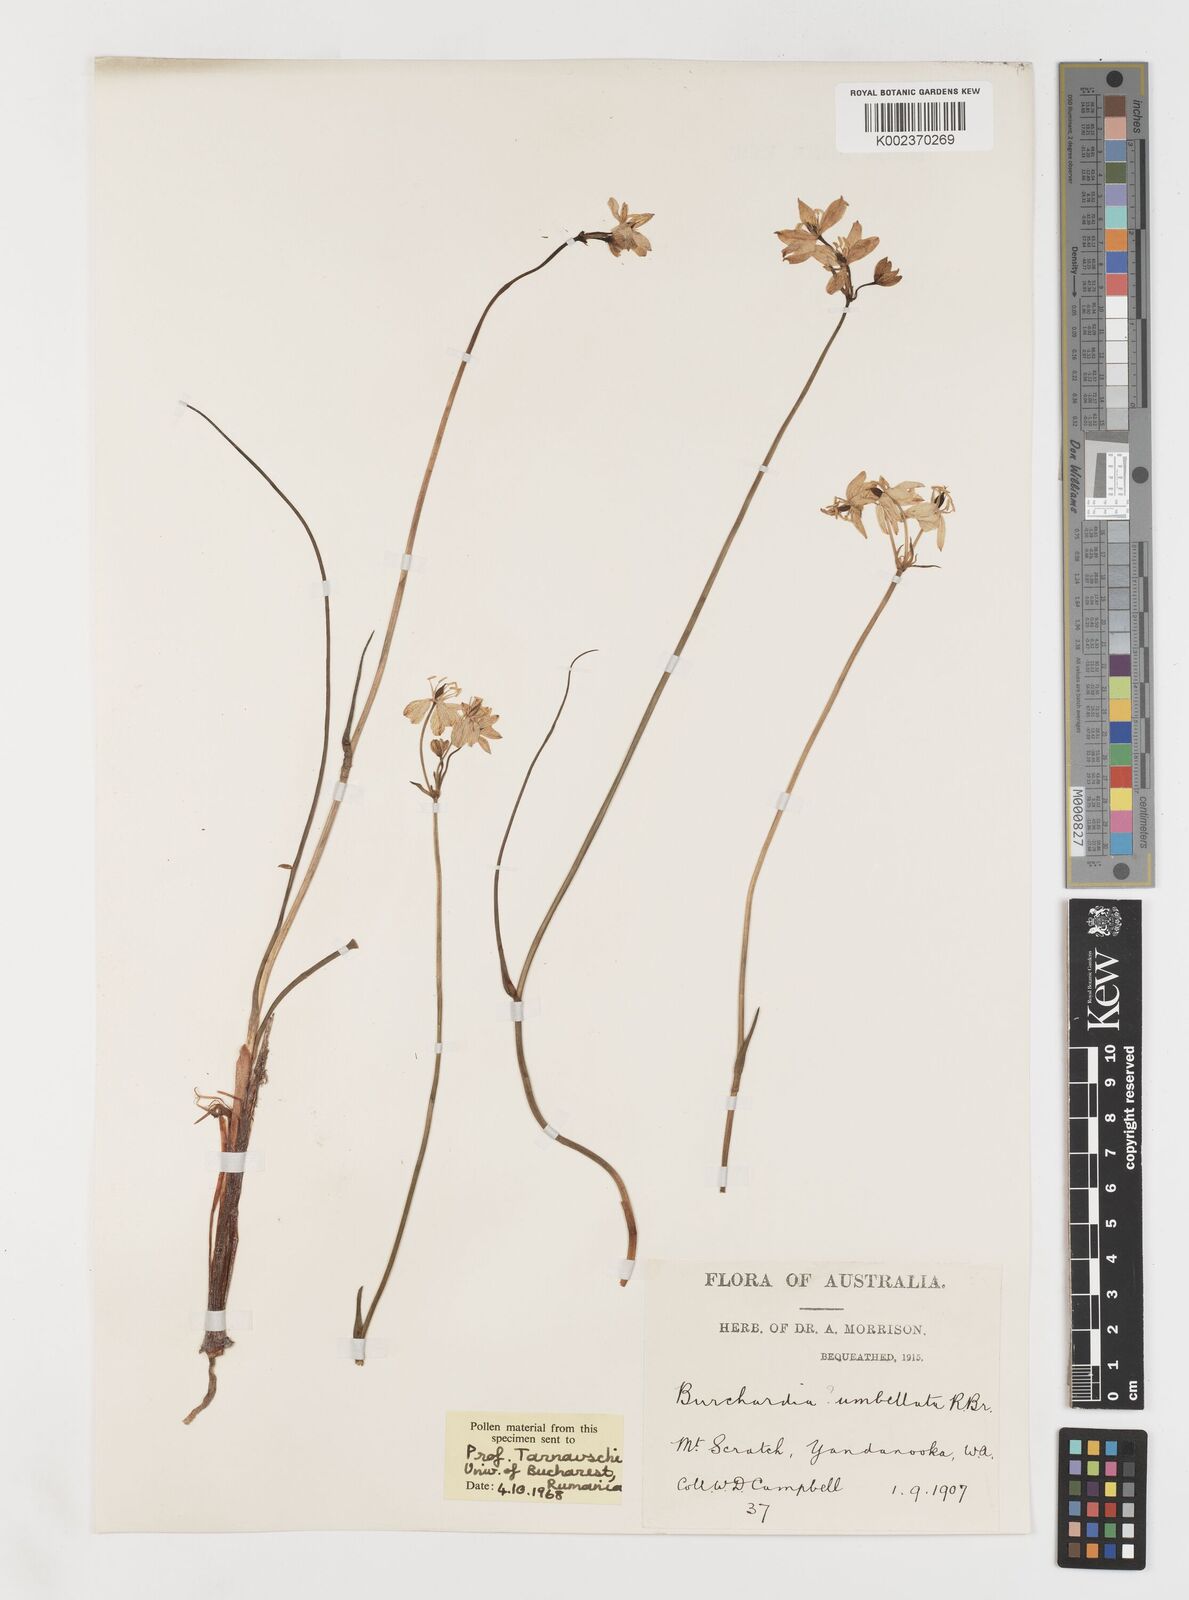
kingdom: Plantae
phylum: Tracheophyta
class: Liliopsida
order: Liliales
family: Colchicaceae
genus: Burchardia
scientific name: Burchardia umbellata
